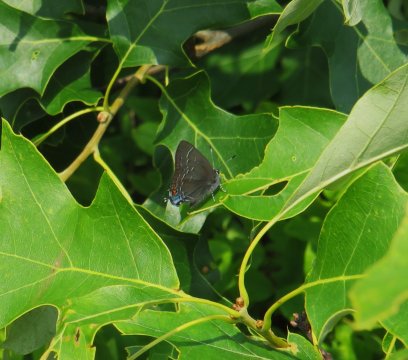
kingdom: Animalia
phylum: Arthropoda
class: Insecta
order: Lepidoptera
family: Lycaenidae
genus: Satyrium
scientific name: Satyrium calanus
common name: Banded Hairstreak
